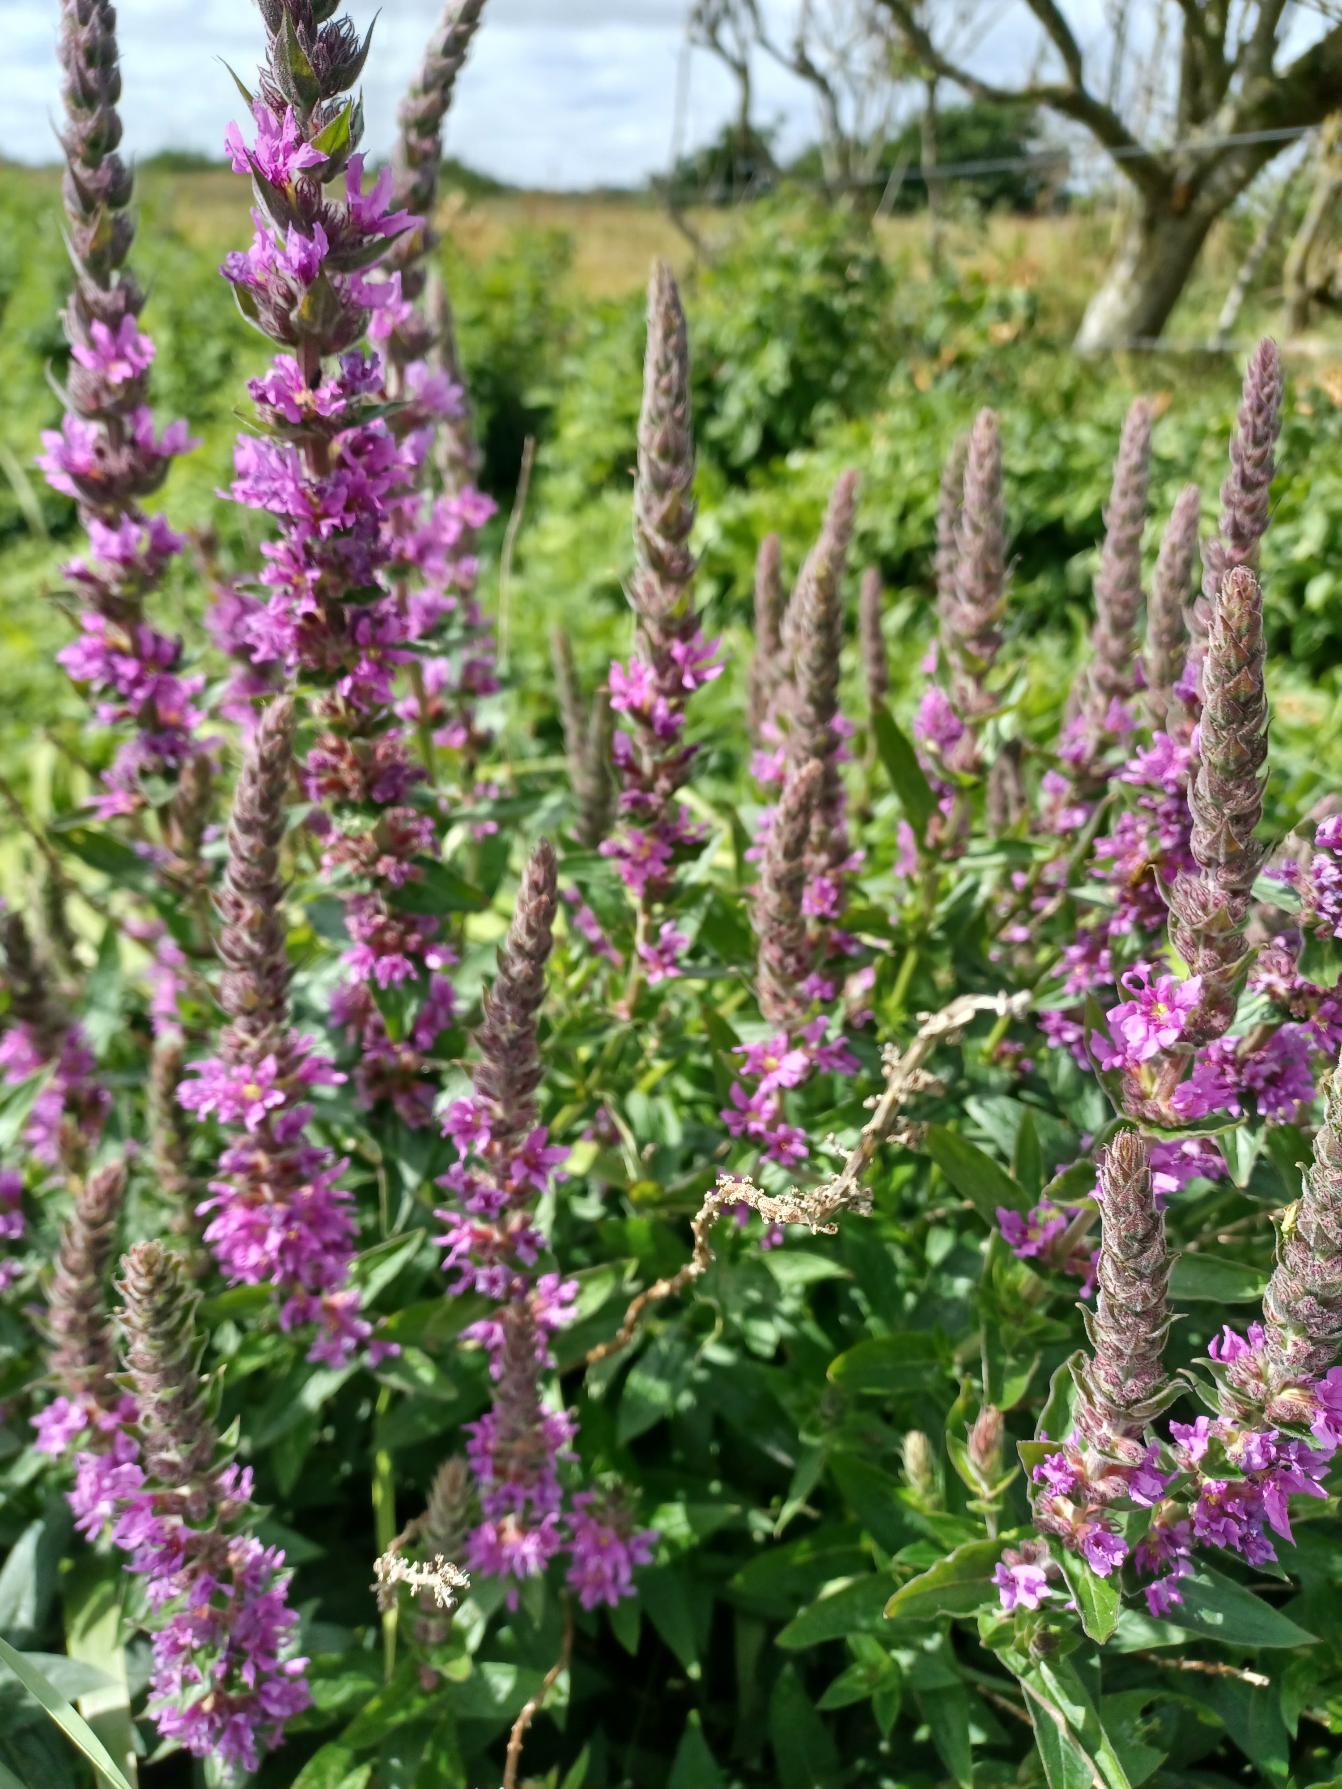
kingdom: Plantae
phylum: Tracheophyta
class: Magnoliopsida
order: Myrtales
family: Lythraceae
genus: Lythrum
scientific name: Lythrum salicaria
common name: Kattehale
